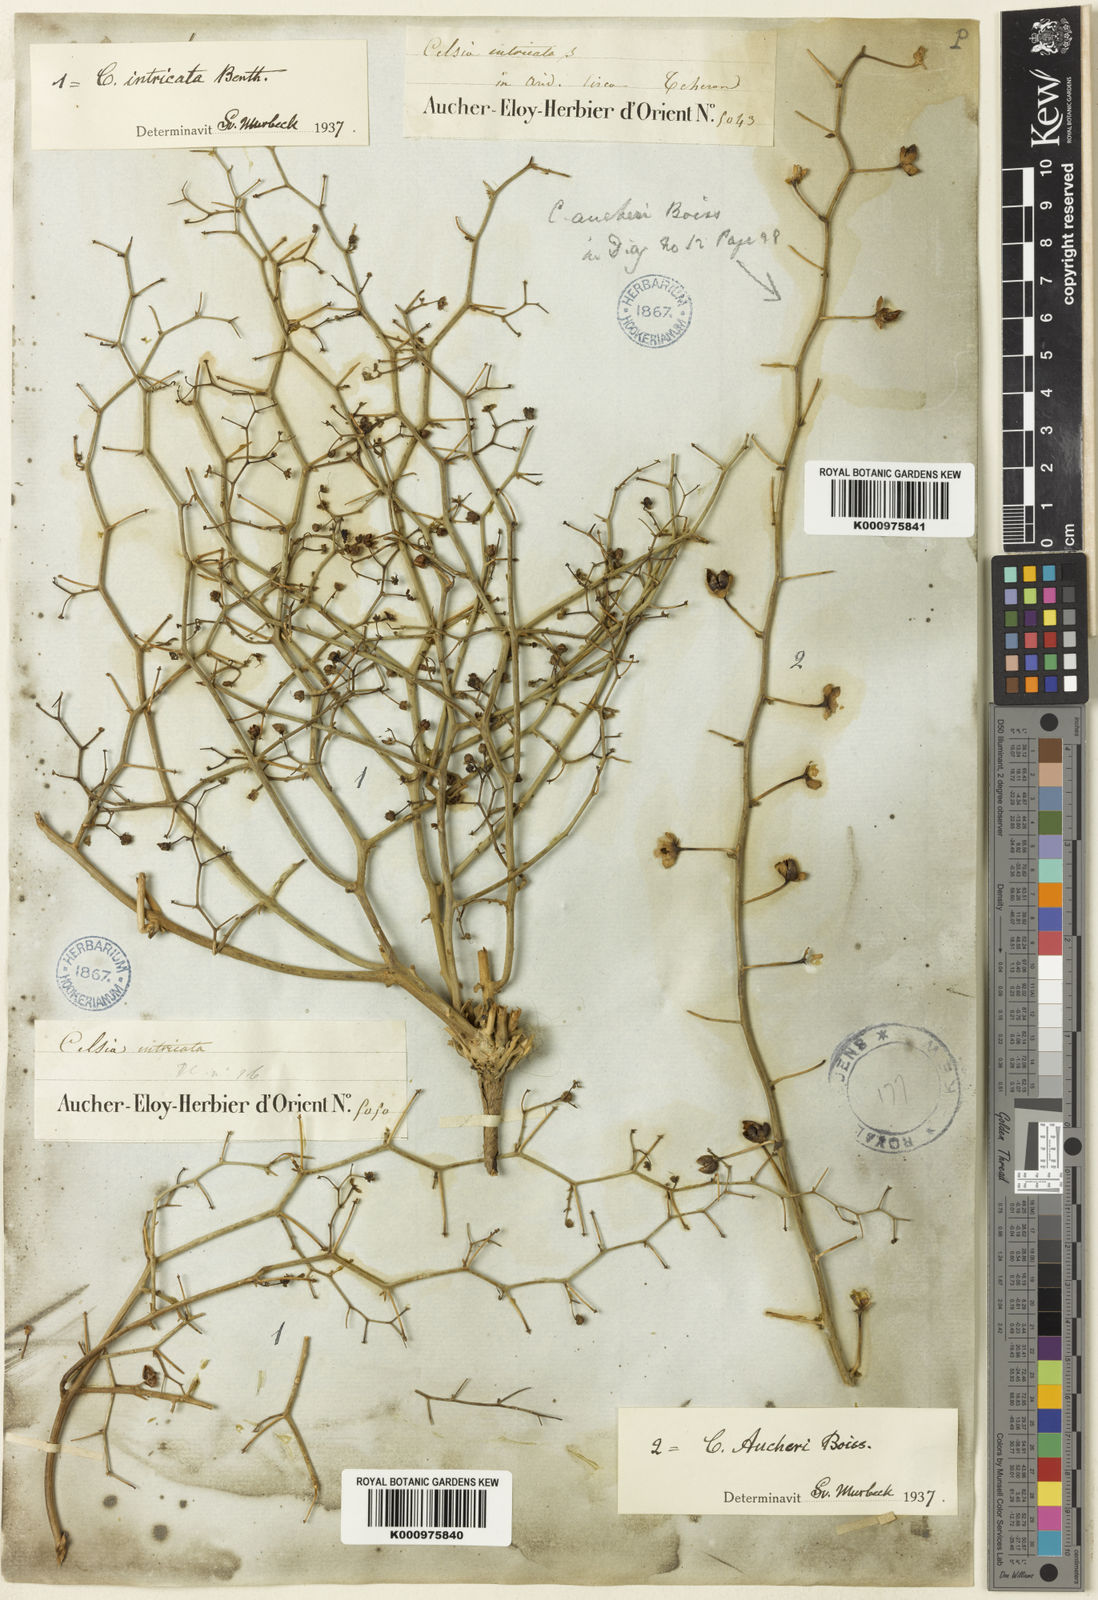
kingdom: Plantae
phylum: Tracheophyta
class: Magnoliopsida
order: Lamiales
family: Scrophulariaceae
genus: Verbascum
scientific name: Verbascum intricatum
